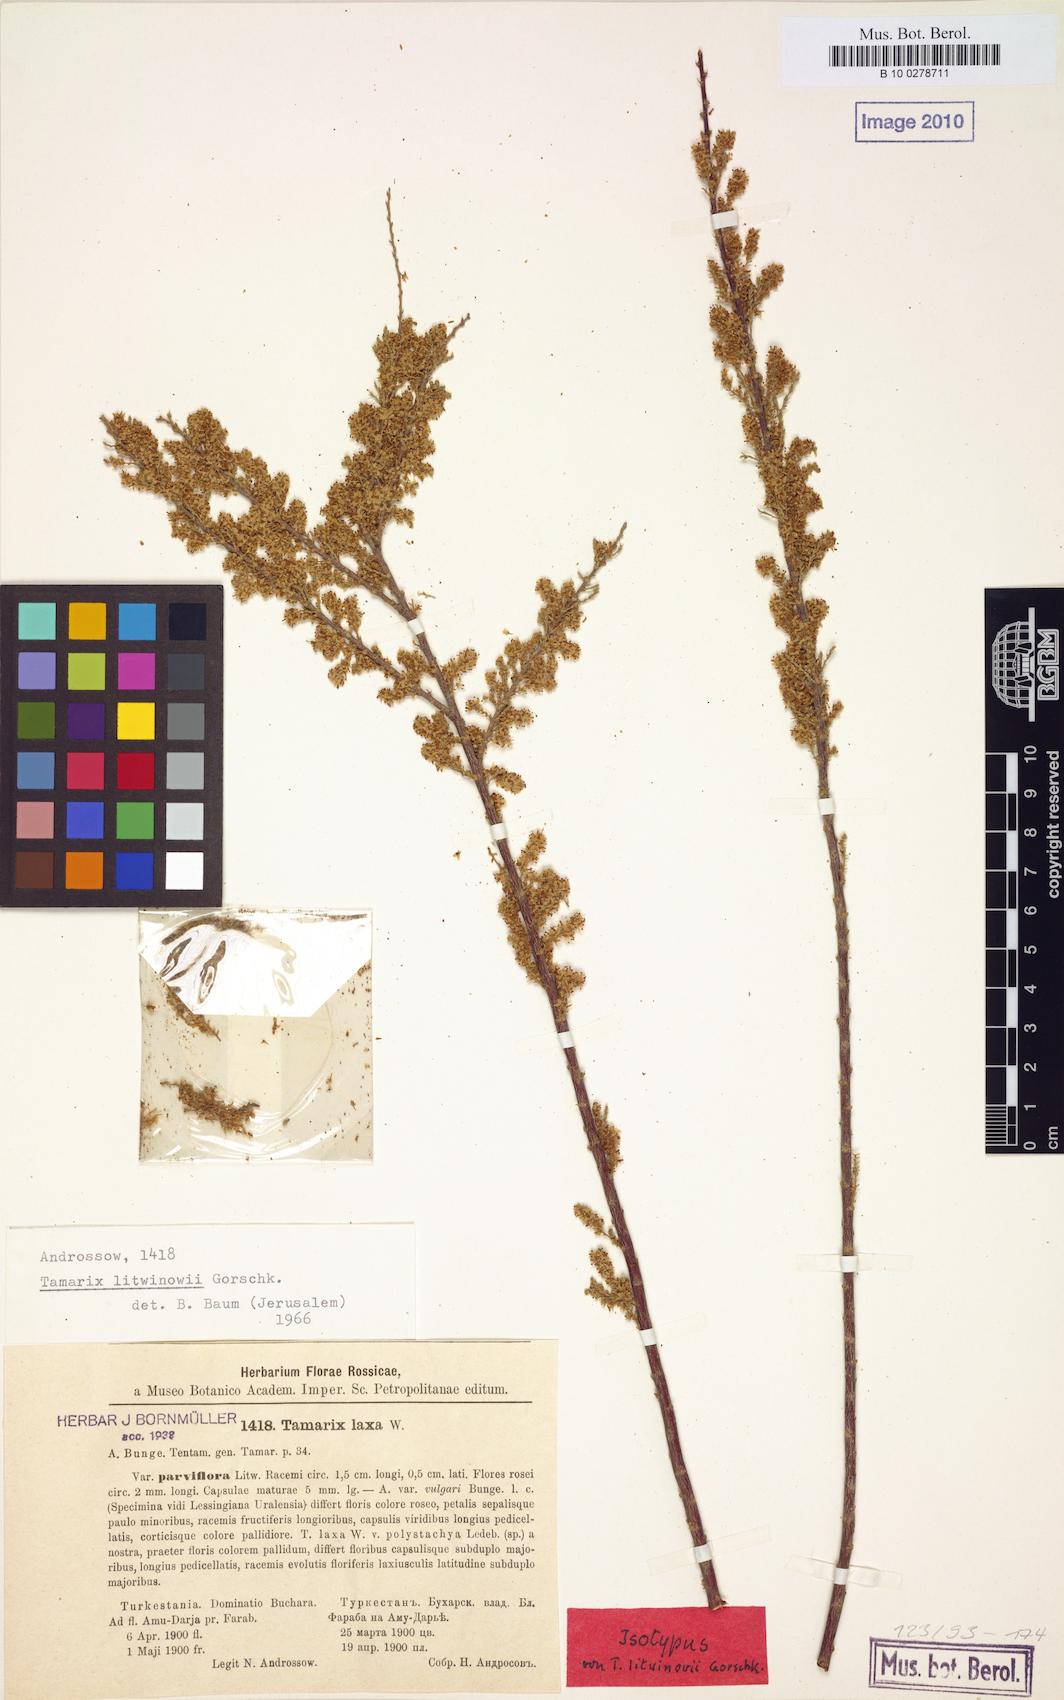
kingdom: Plantae
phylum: Tracheophyta
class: Magnoliopsida
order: Caryophyllales
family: Tamaricaceae
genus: Tamarix
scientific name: Tamarix litwinowii
